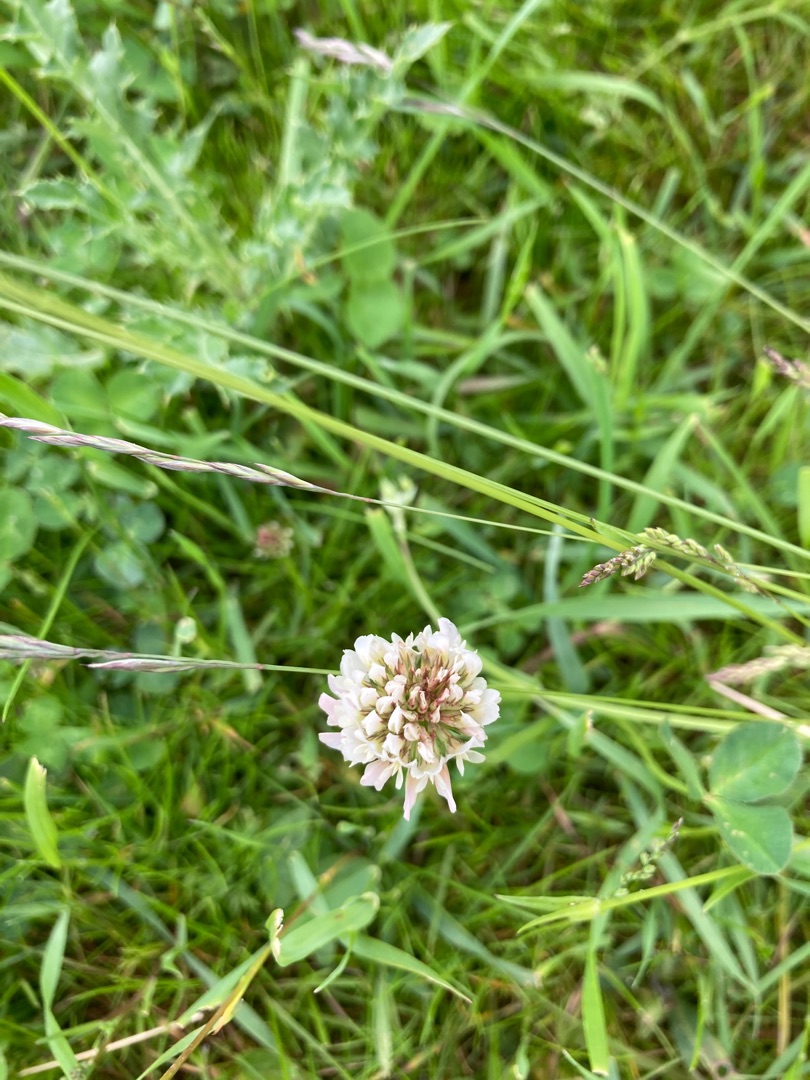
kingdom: Plantae
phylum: Tracheophyta
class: Magnoliopsida
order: Fabales
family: Fabaceae
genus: Trifolium
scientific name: Trifolium repens
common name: Hvid-kløver
